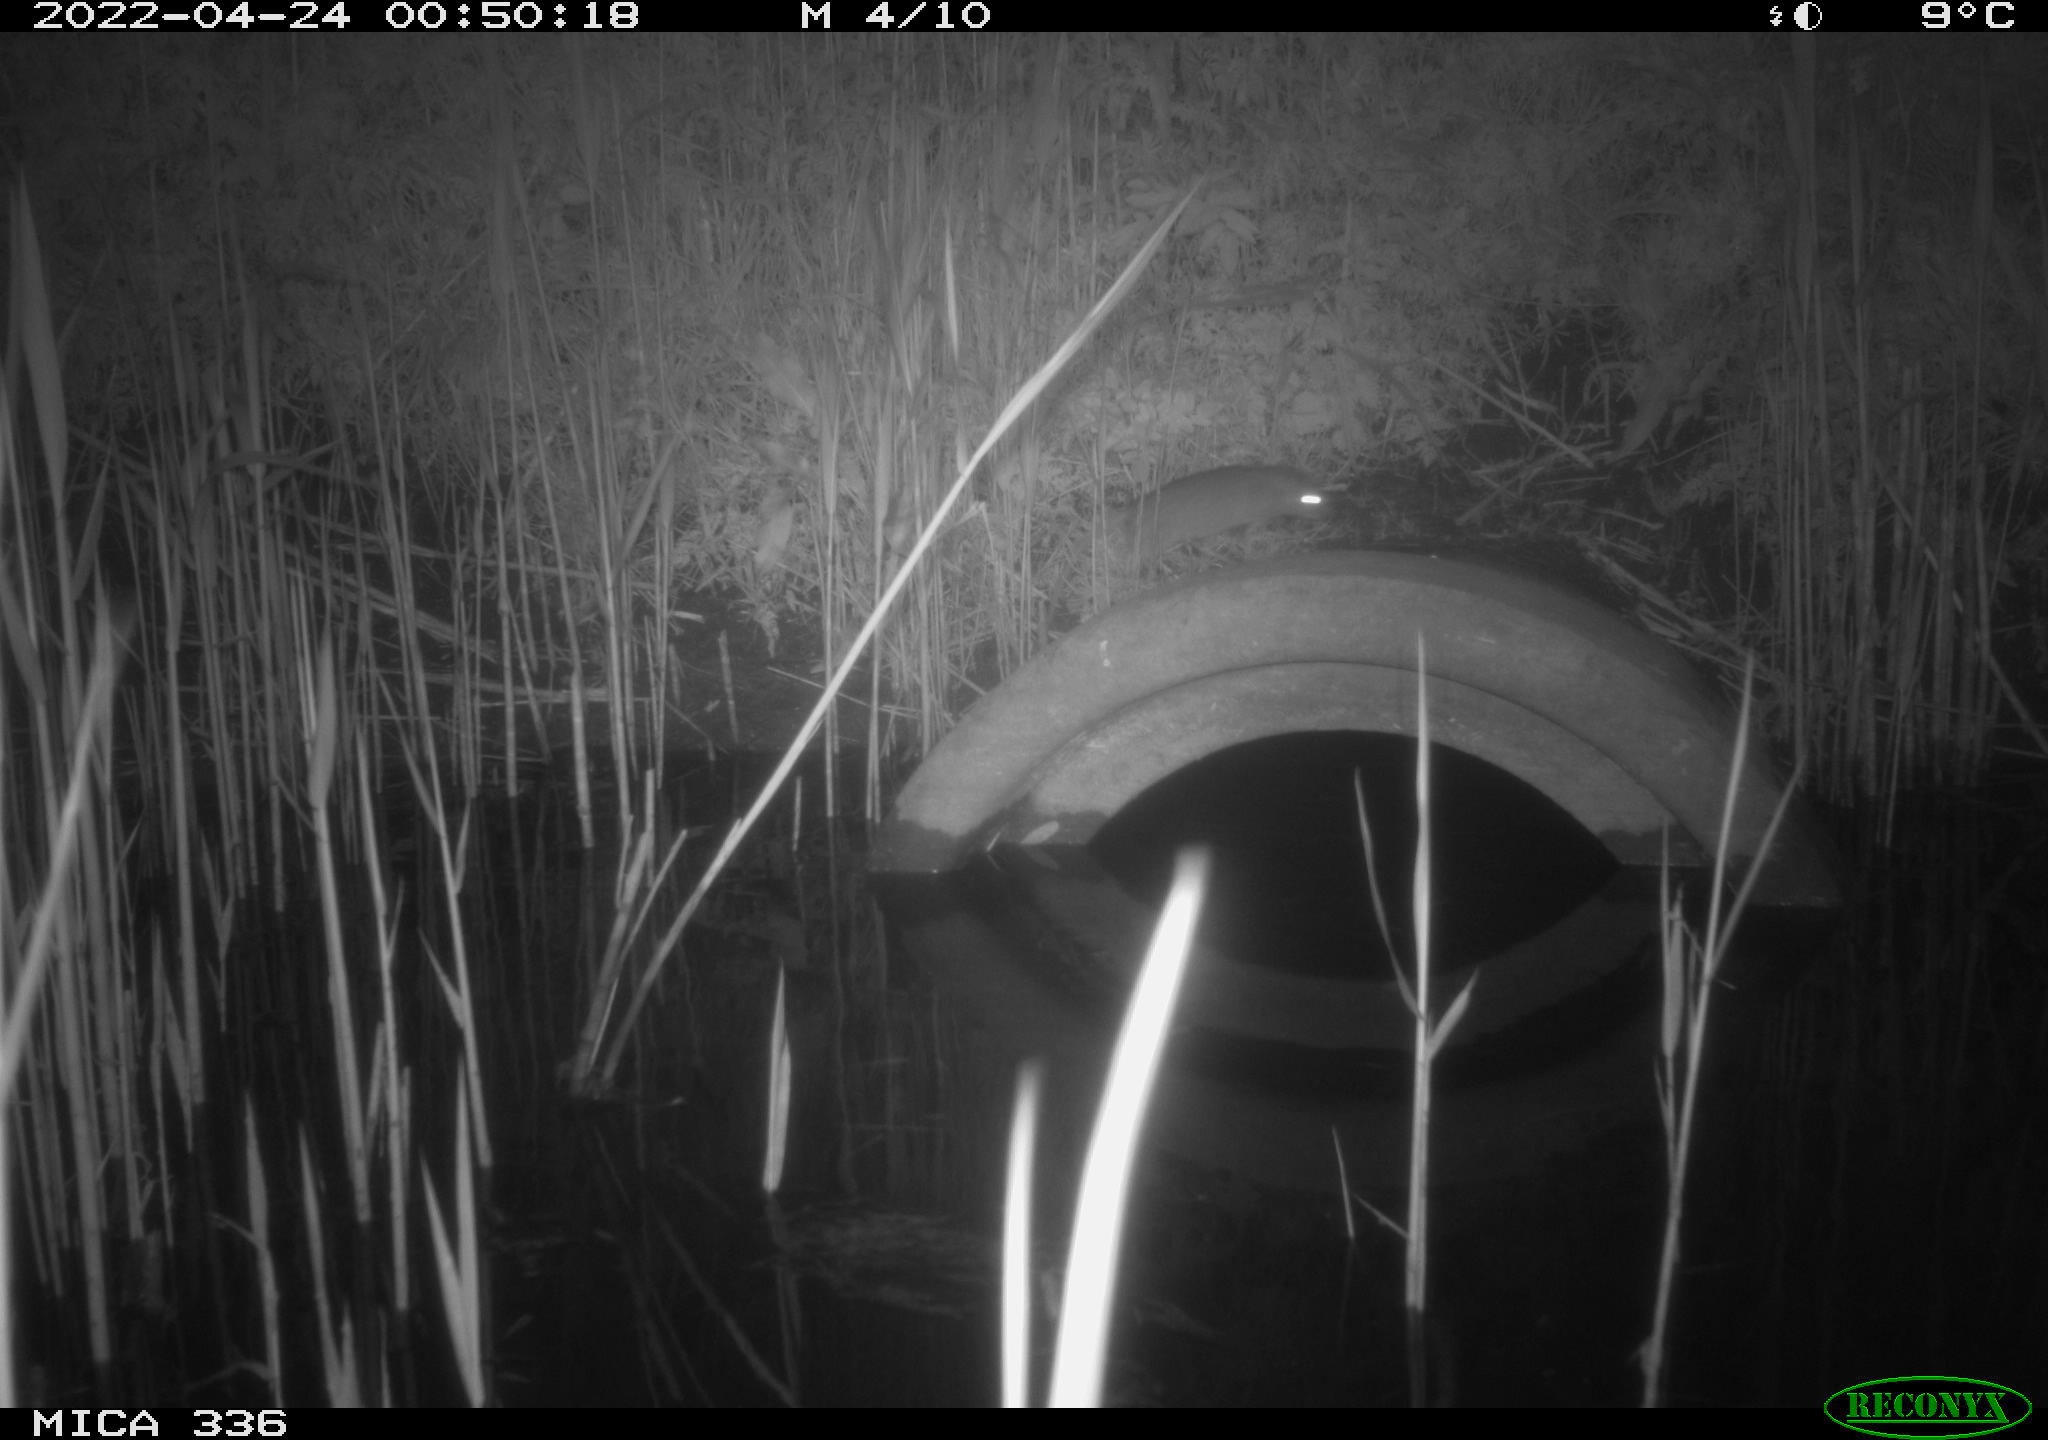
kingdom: Animalia
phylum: Chordata
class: Mammalia
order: Rodentia
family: Muridae
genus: Rattus
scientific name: Rattus norvegicus
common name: Brown rat
